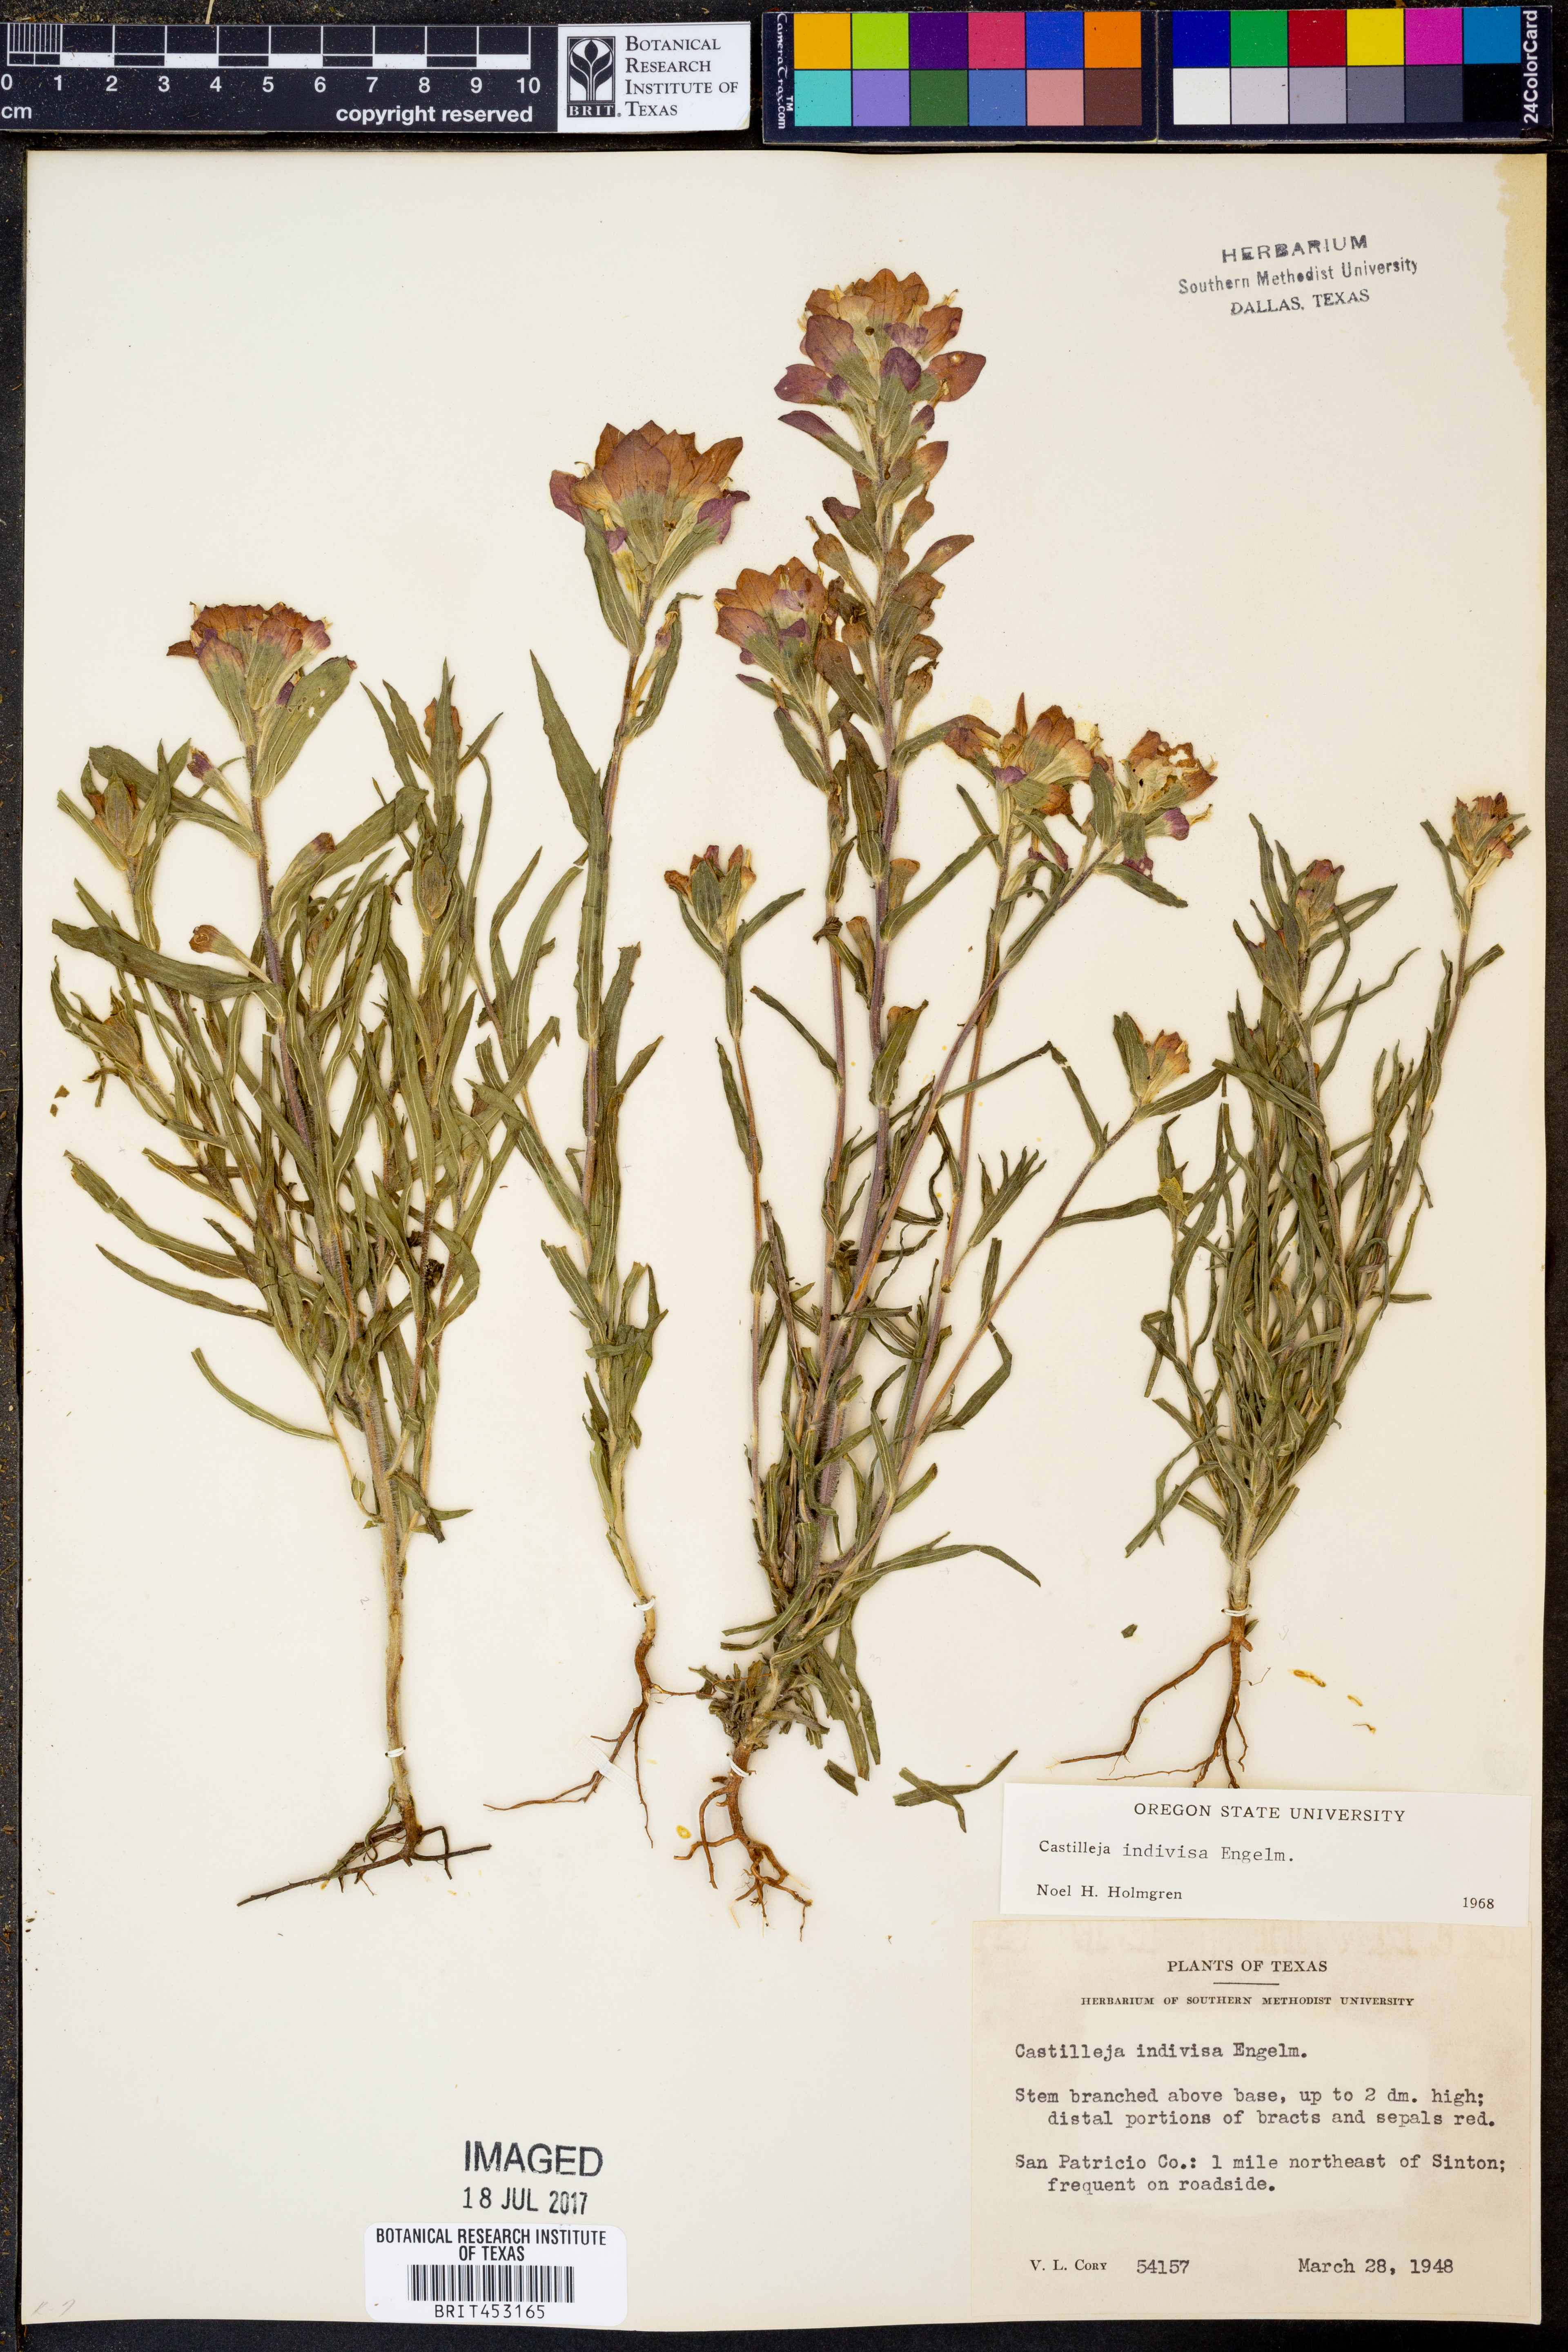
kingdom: Plantae
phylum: Tracheophyta
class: Magnoliopsida
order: Lamiales
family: Orobanchaceae
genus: Castilleja
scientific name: Castilleja indivisa
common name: Texas paintbrush
